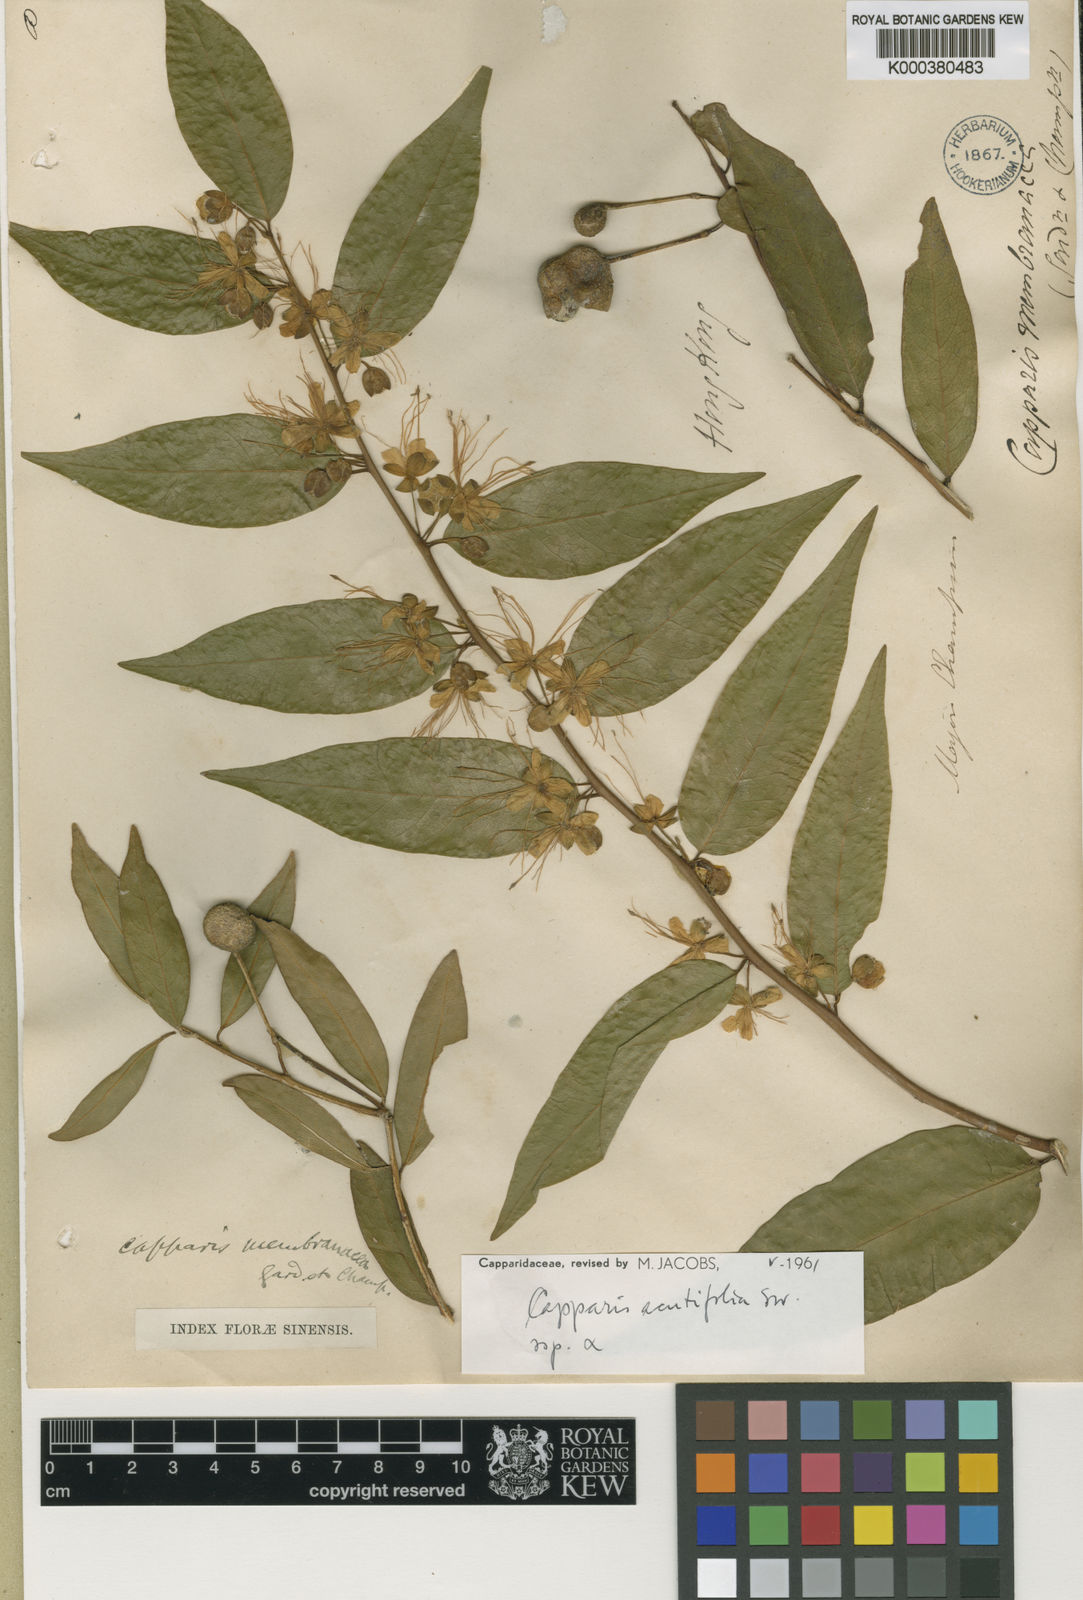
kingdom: Plantae
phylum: Tracheophyta
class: Magnoliopsida
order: Brassicales
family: Capparaceae
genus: Capparis
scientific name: Capparis acutifolia
